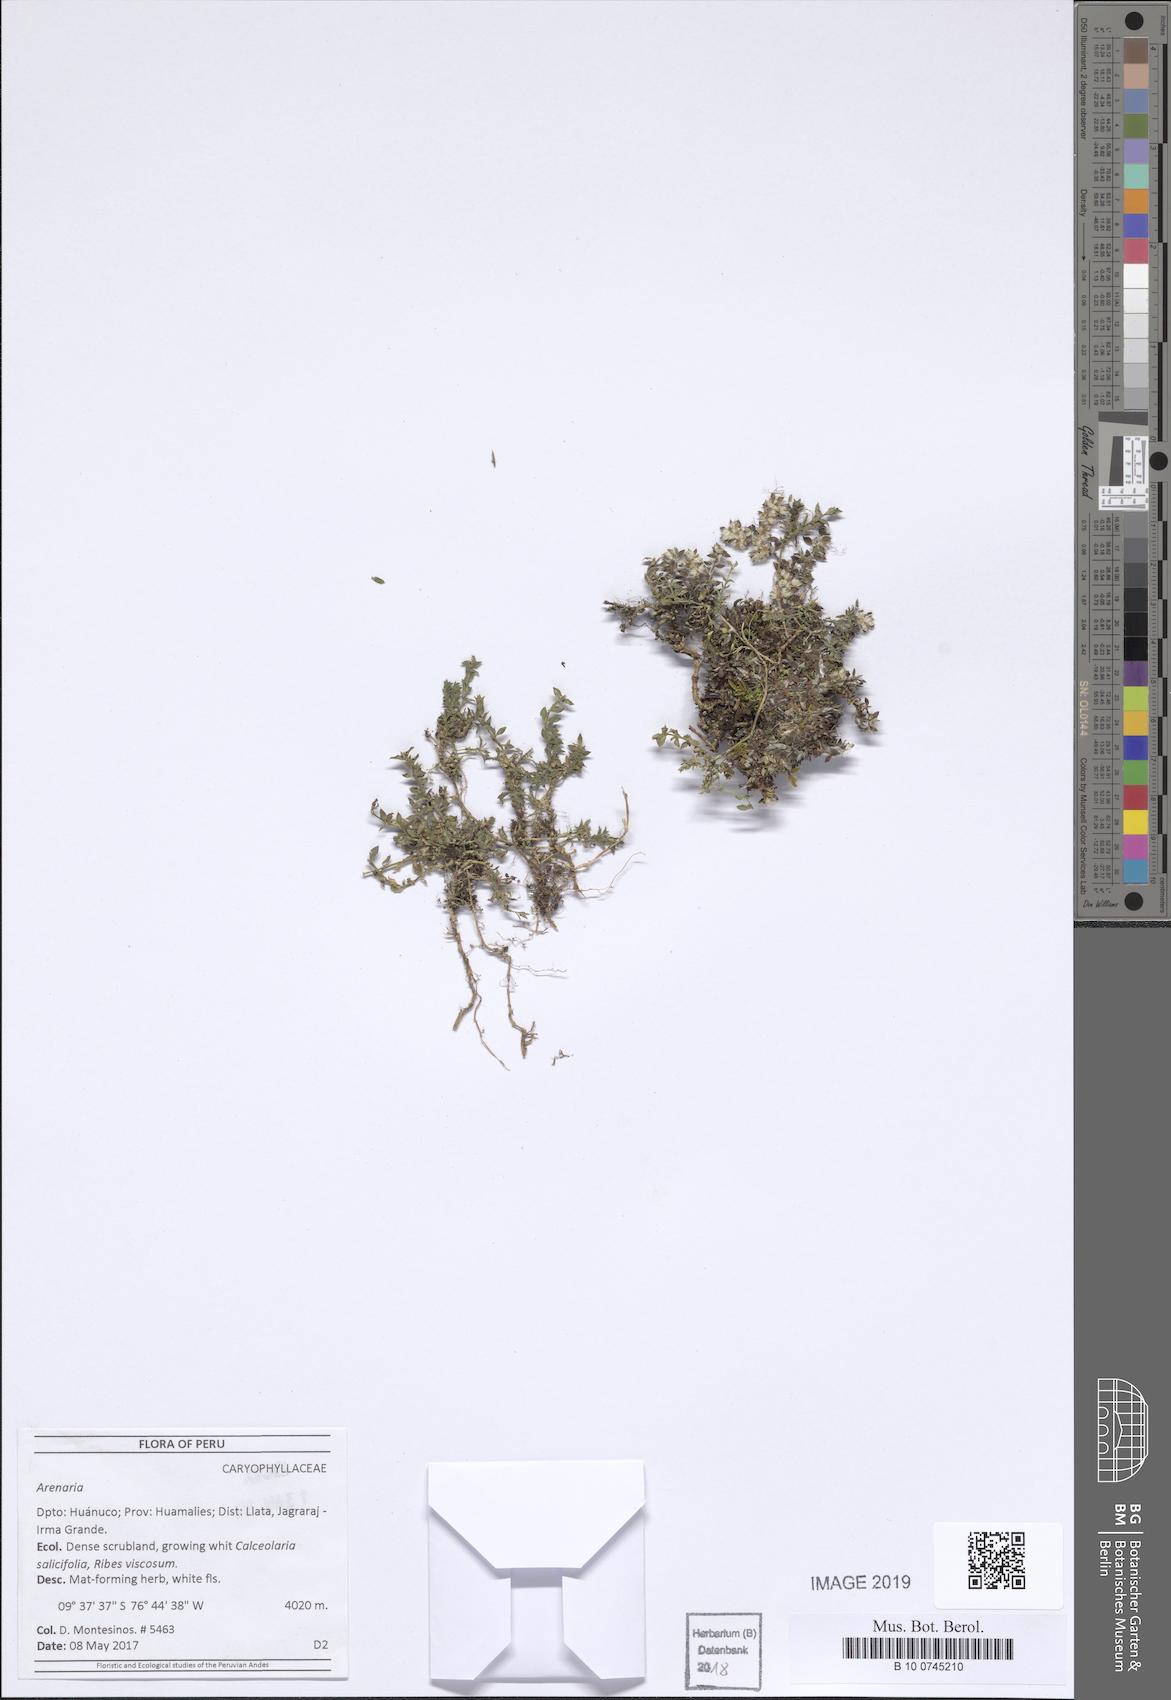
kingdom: Plantae
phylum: Tracheophyta
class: Magnoliopsida
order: Caryophyllales
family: Caryophyllaceae
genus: Arenaria
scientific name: Arenaria
